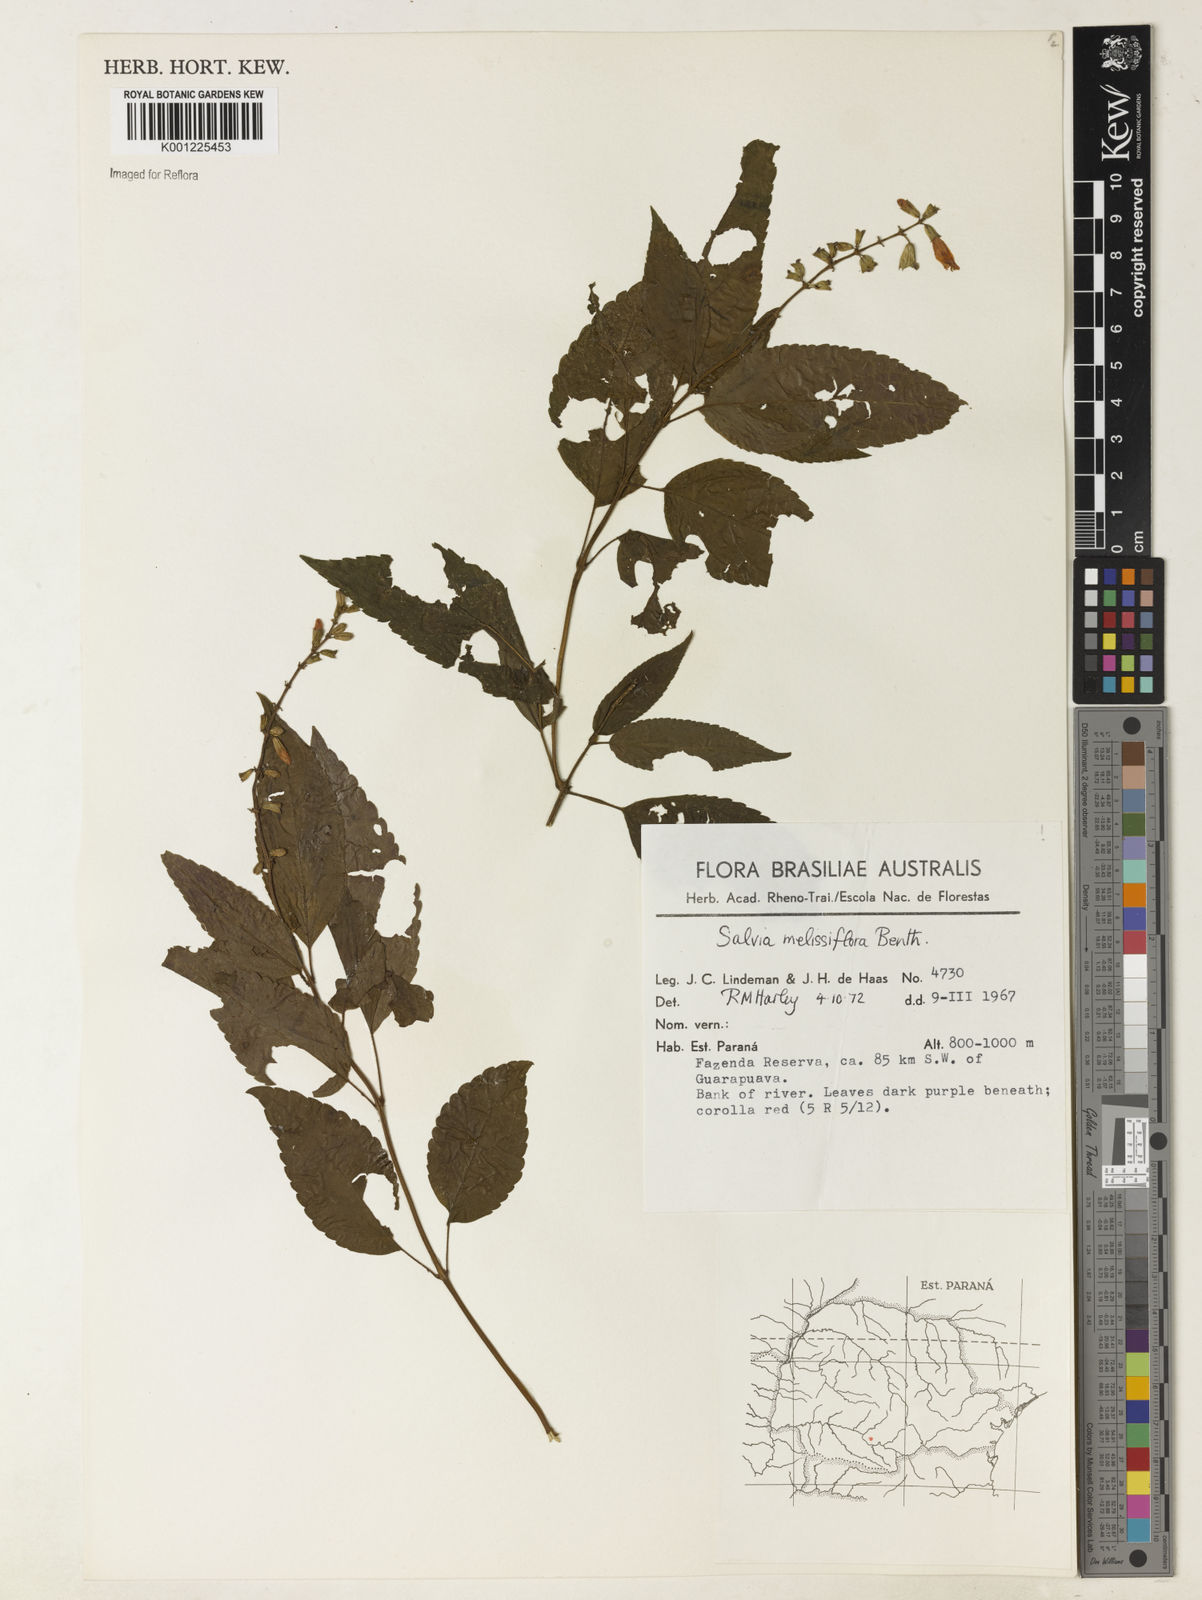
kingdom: Plantae
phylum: Tracheophyta
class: Magnoliopsida
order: Lamiales
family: Lamiaceae
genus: Salvia
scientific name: Salvia melissiflora
